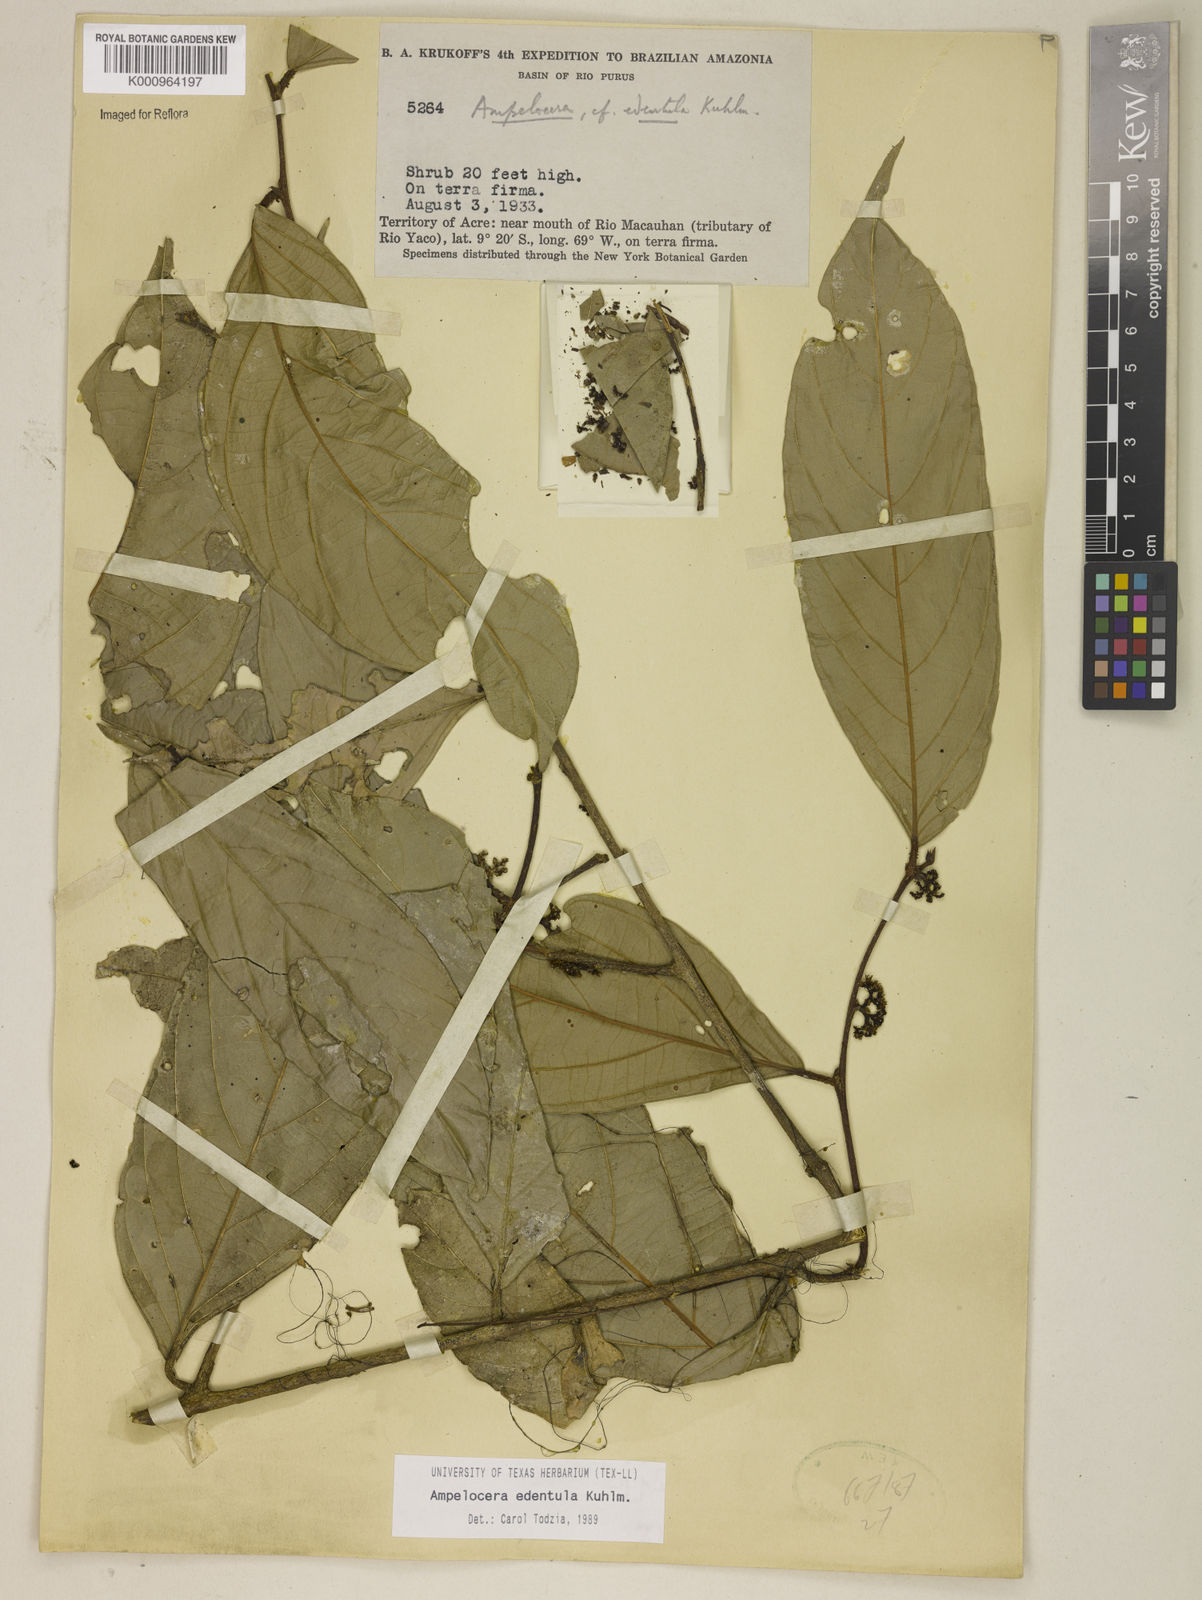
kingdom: Plantae
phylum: Tracheophyta
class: Magnoliopsida
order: Rosales
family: Cannabaceae
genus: Ampelocera
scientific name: Ampelocera edentula
